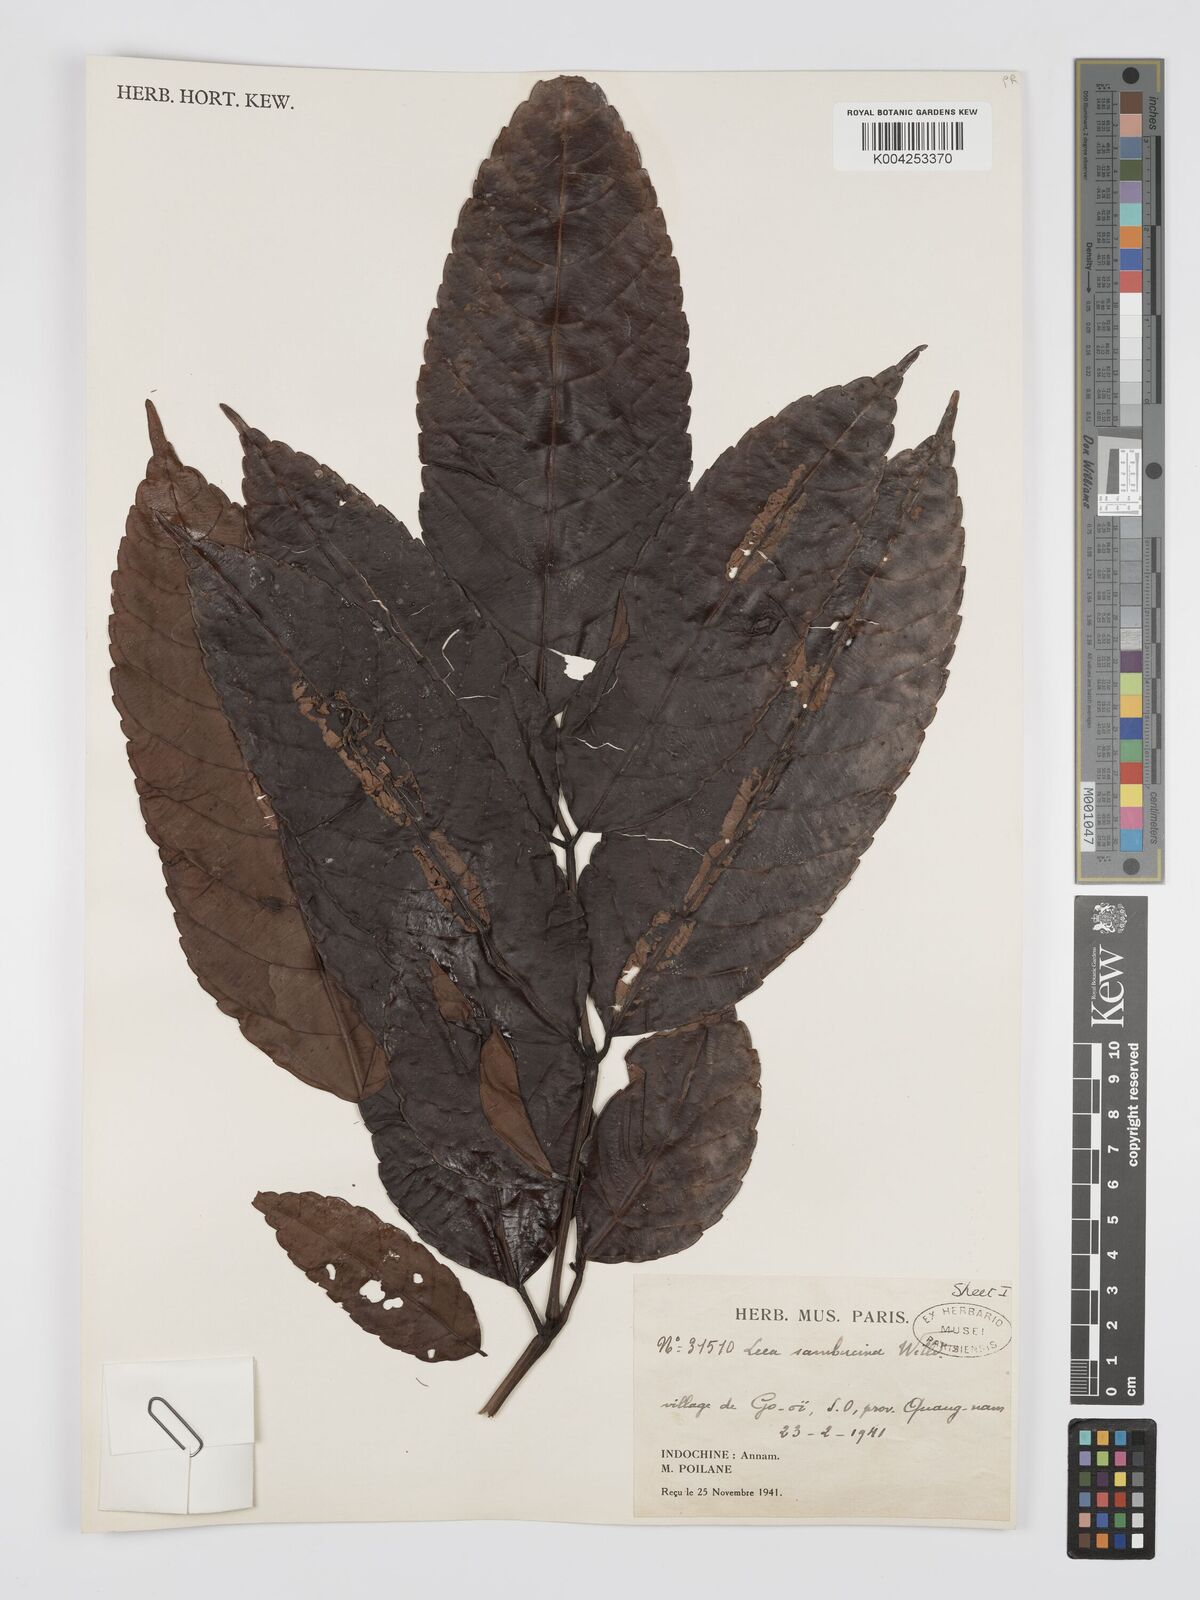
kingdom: Plantae
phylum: Tracheophyta
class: Magnoliopsida
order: Vitales
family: Vitaceae
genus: Leea
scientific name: Leea indica
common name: Bandicoot-berry
